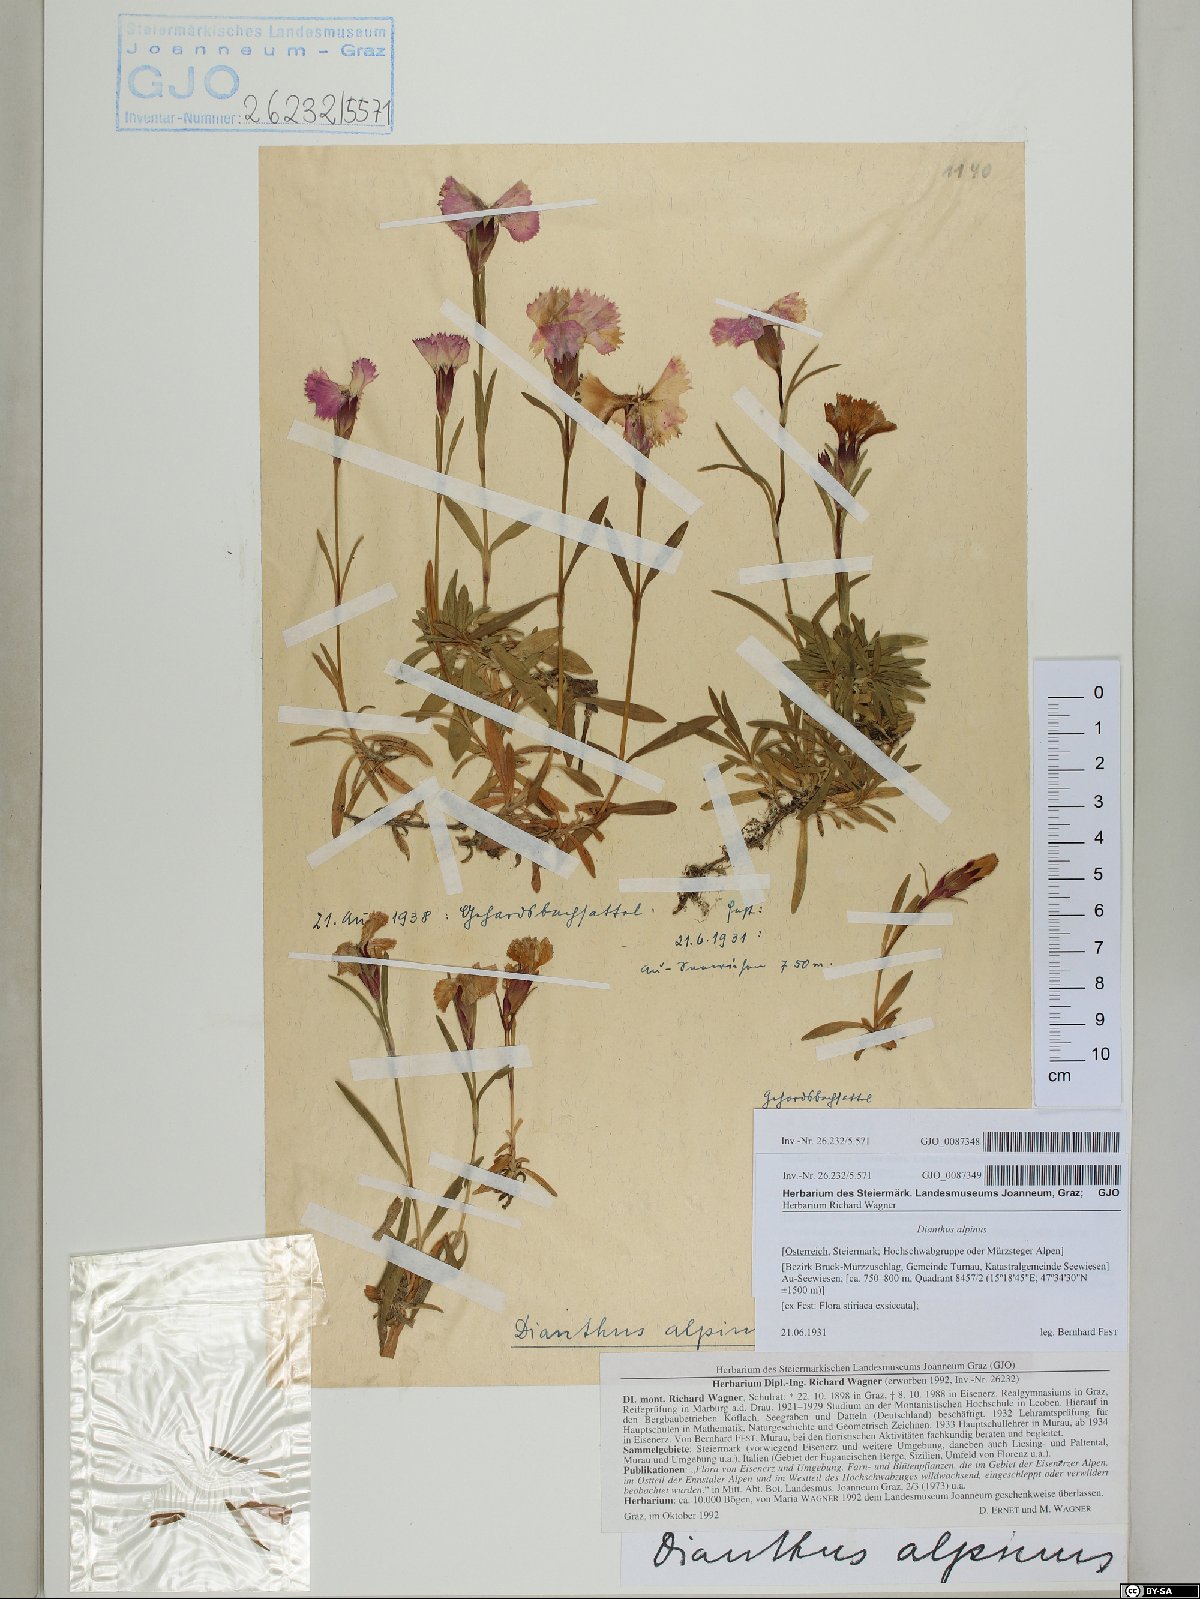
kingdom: Plantae
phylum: Tracheophyta
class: Magnoliopsida
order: Caryophyllales
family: Caryophyllaceae
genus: Dianthus
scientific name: Dianthus alpinus
